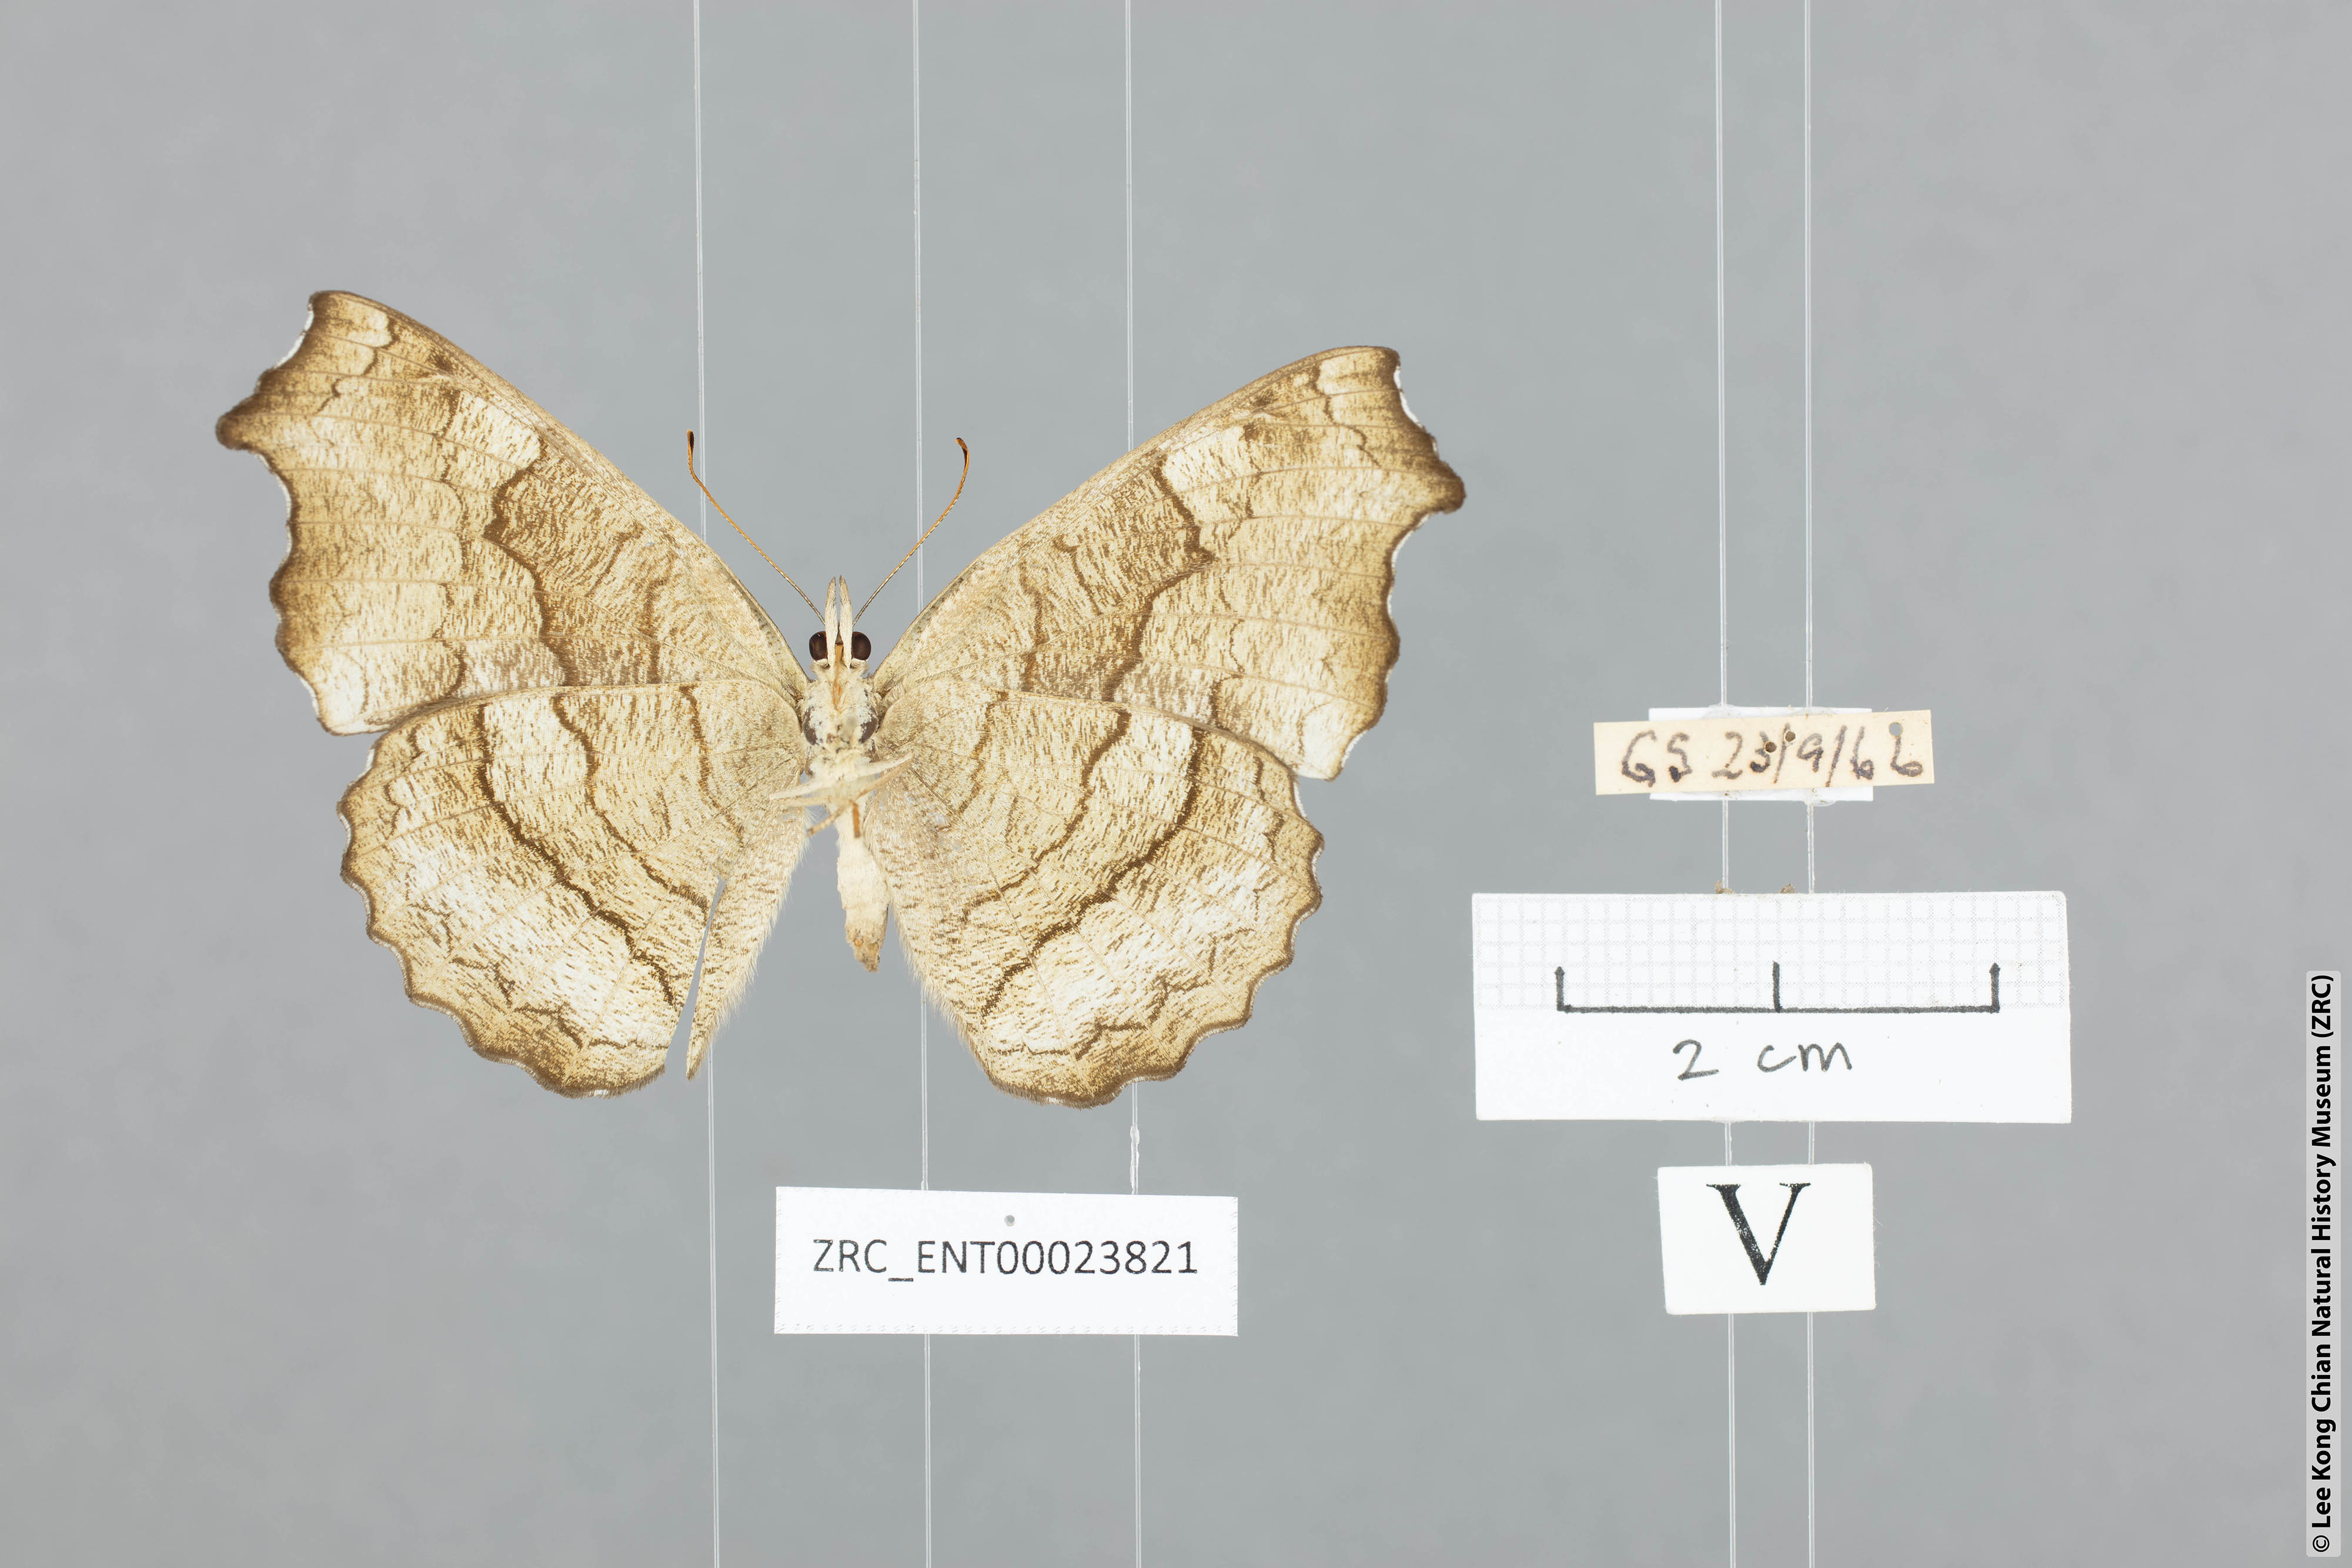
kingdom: Animalia
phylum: Arthropoda
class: Insecta
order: Lepidoptera
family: Nymphalidae
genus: Laringa
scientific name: Laringa castelnaui
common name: Blue dandy
